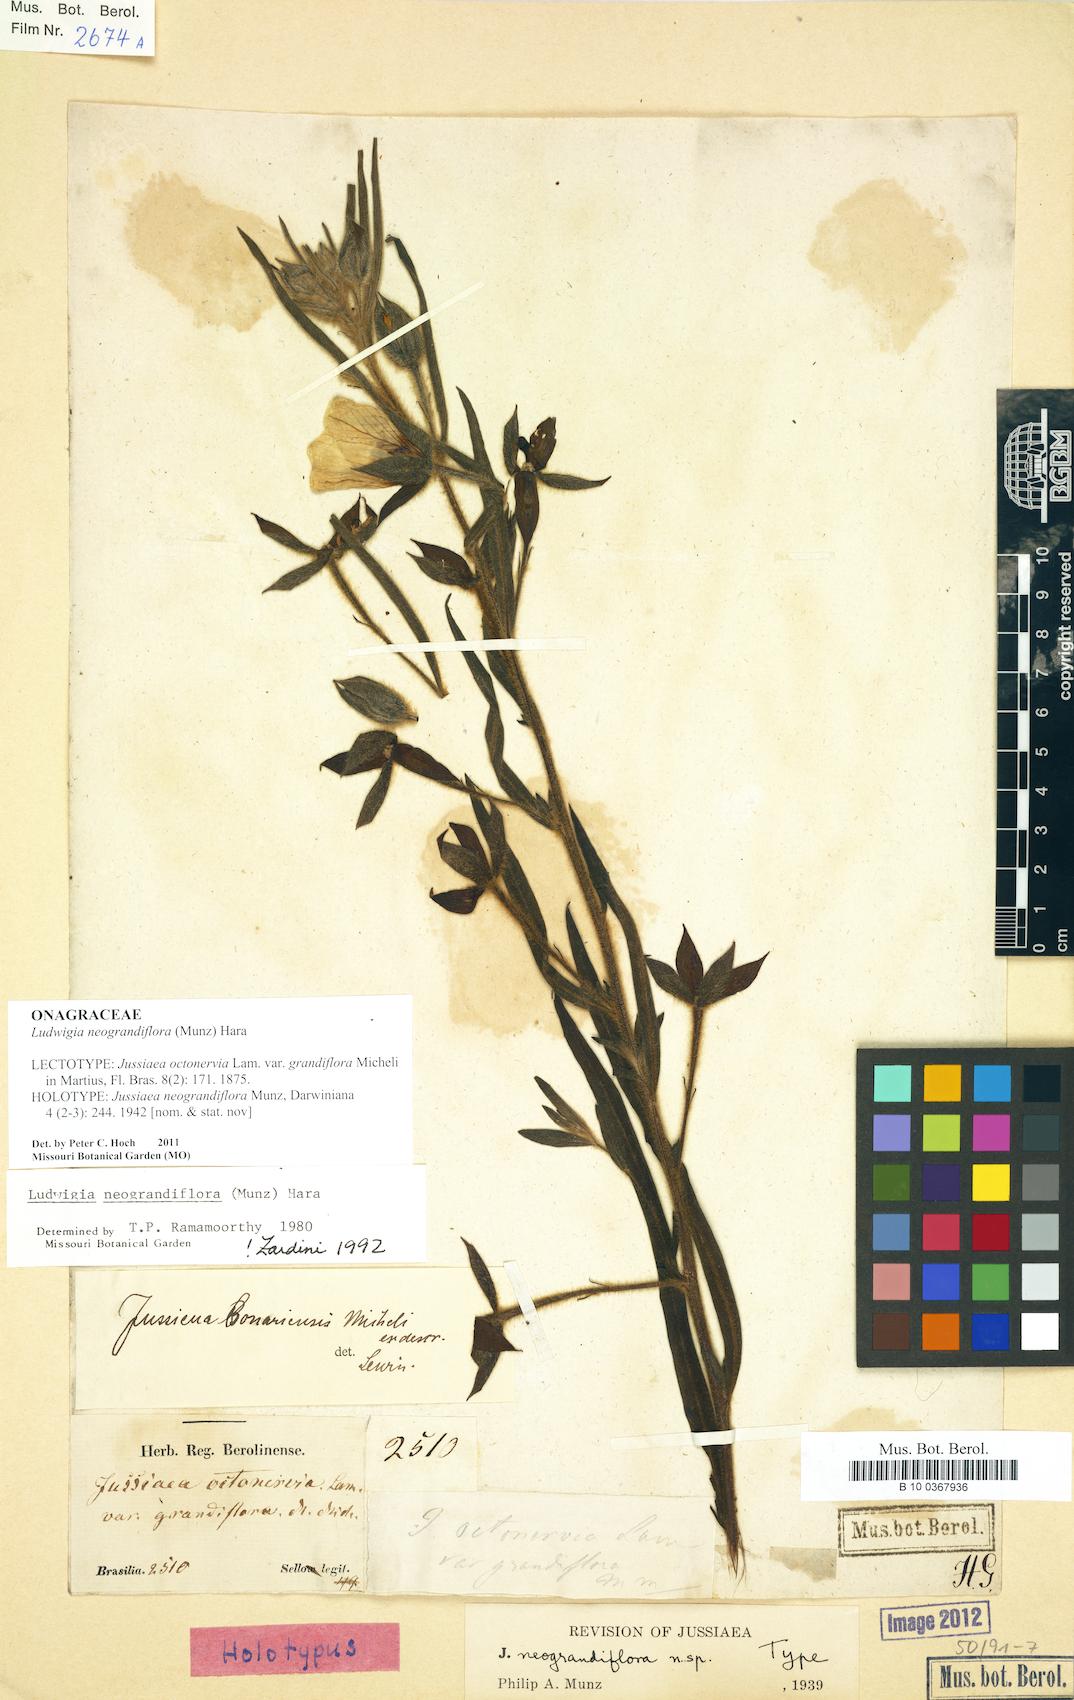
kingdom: Plantae
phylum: Tracheophyta
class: Magnoliopsida
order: Myrtales
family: Onagraceae
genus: Ludwigia
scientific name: Ludwigia neograndiflora
